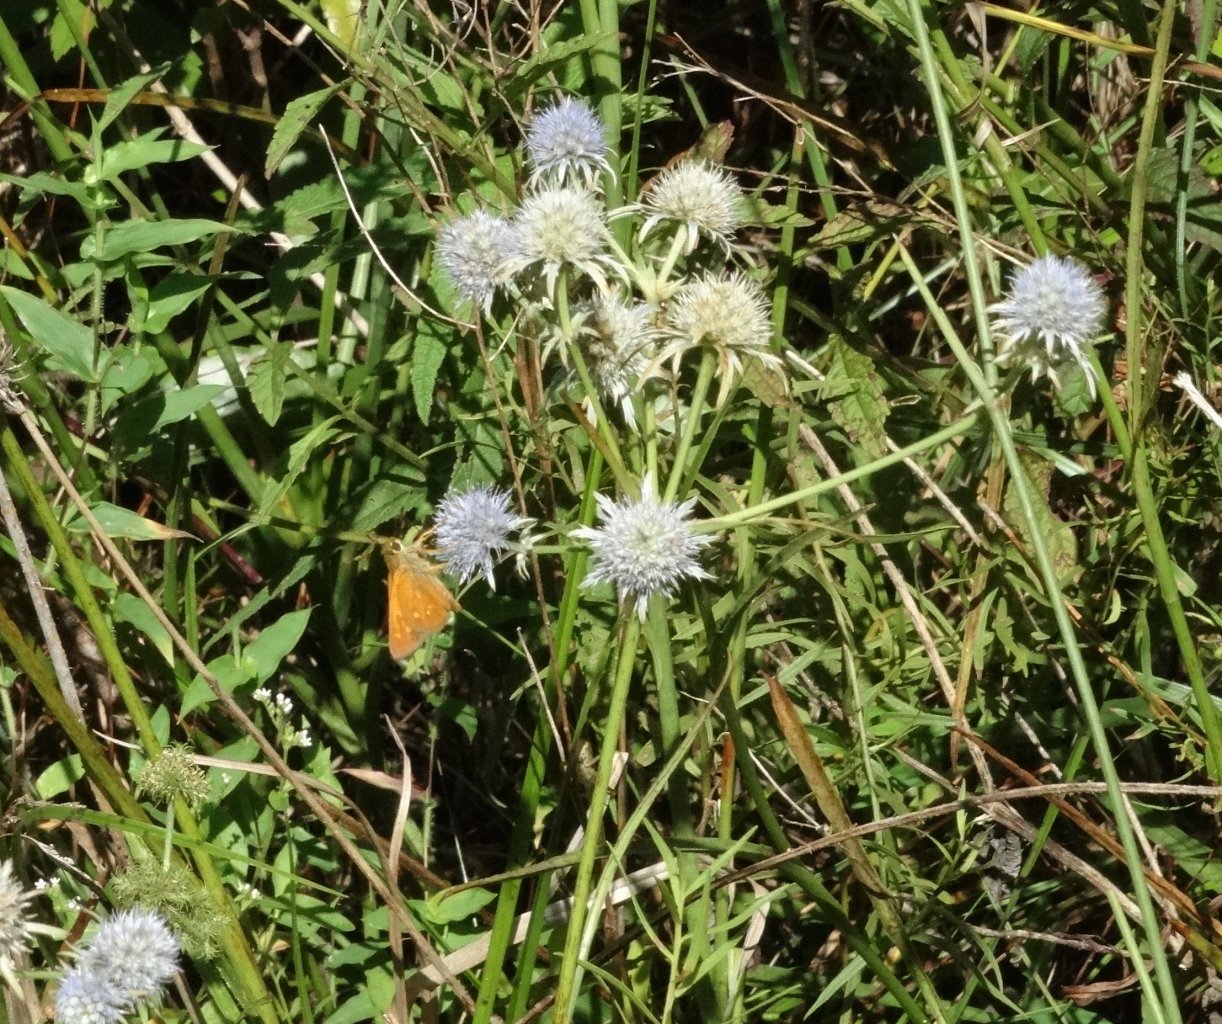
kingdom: Animalia
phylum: Arthropoda
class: Insecta
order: Lepidoptera
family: Hesperiidae
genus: Poanes
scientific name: Poanes yehl
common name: Yehl Skipper
